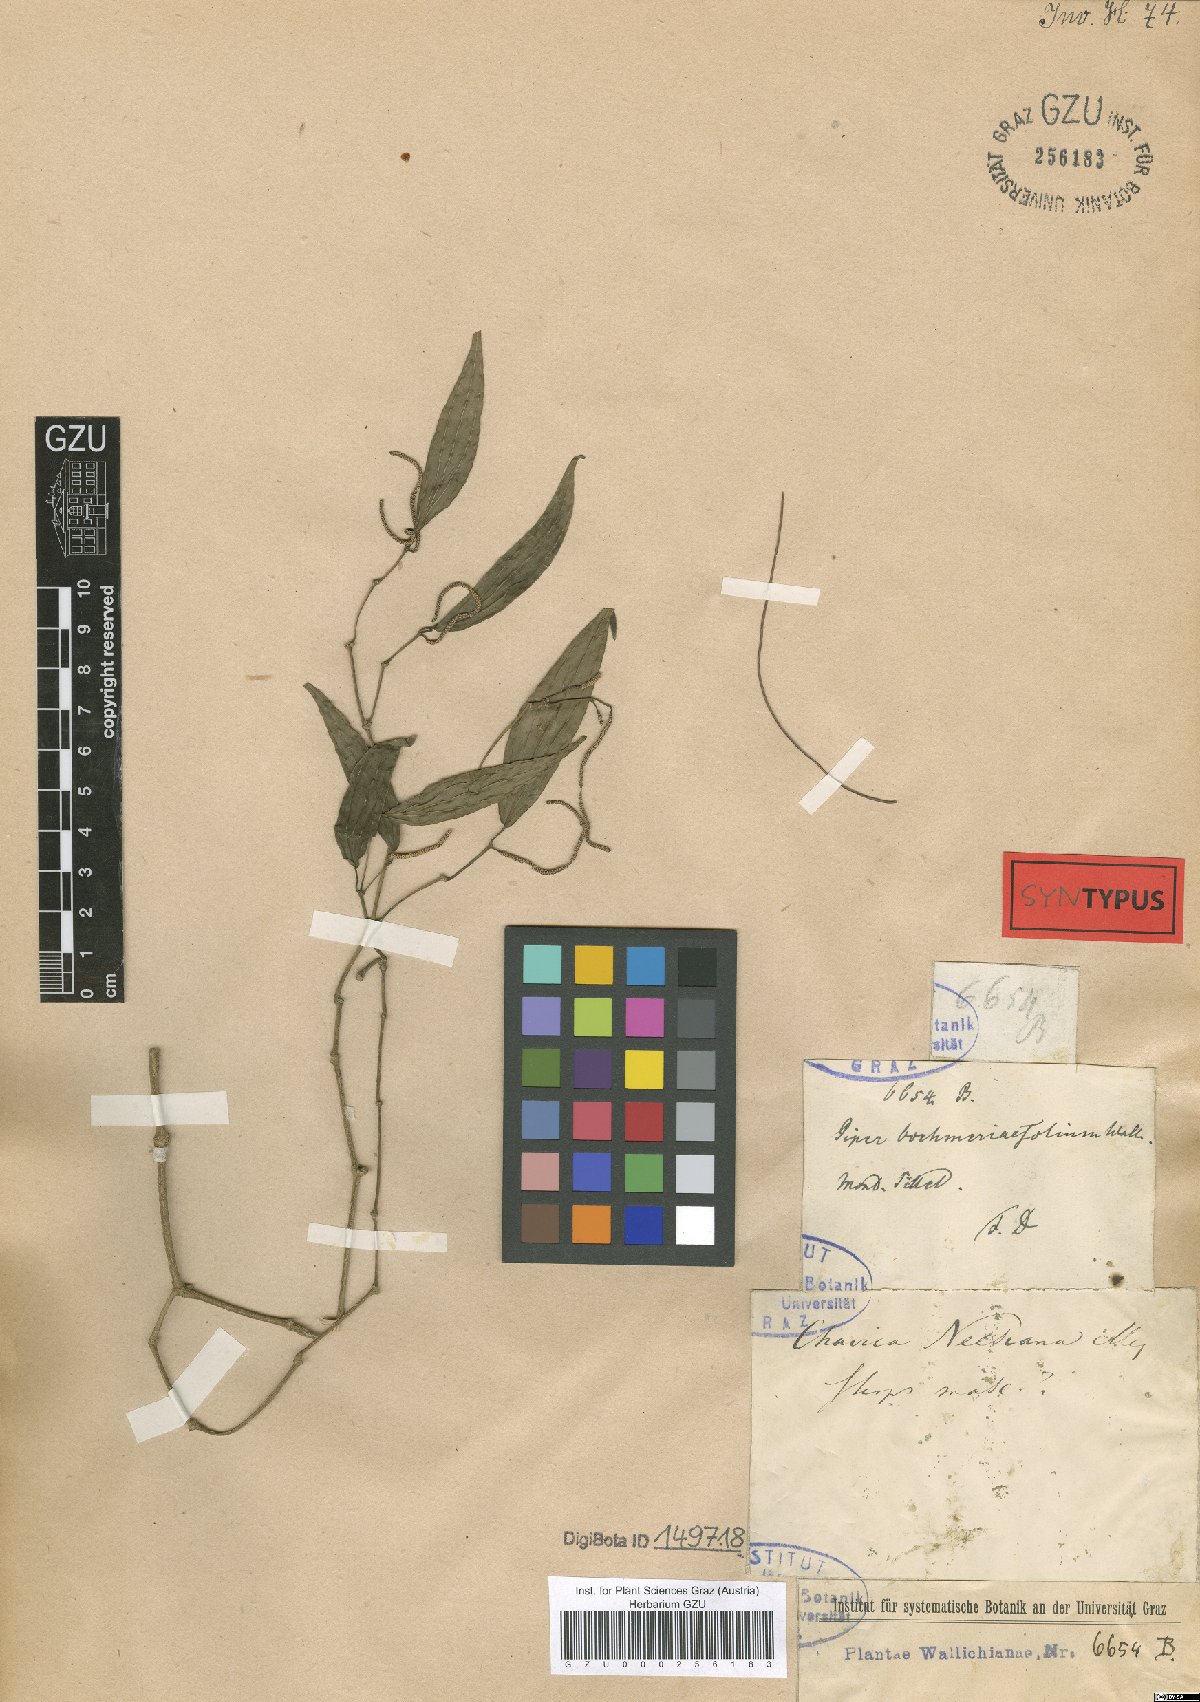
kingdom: Plantae
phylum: Tracheophyta
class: Magnoliopsida
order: Piperales
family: Piperaceae
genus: Piper
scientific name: Piper peepuloides
